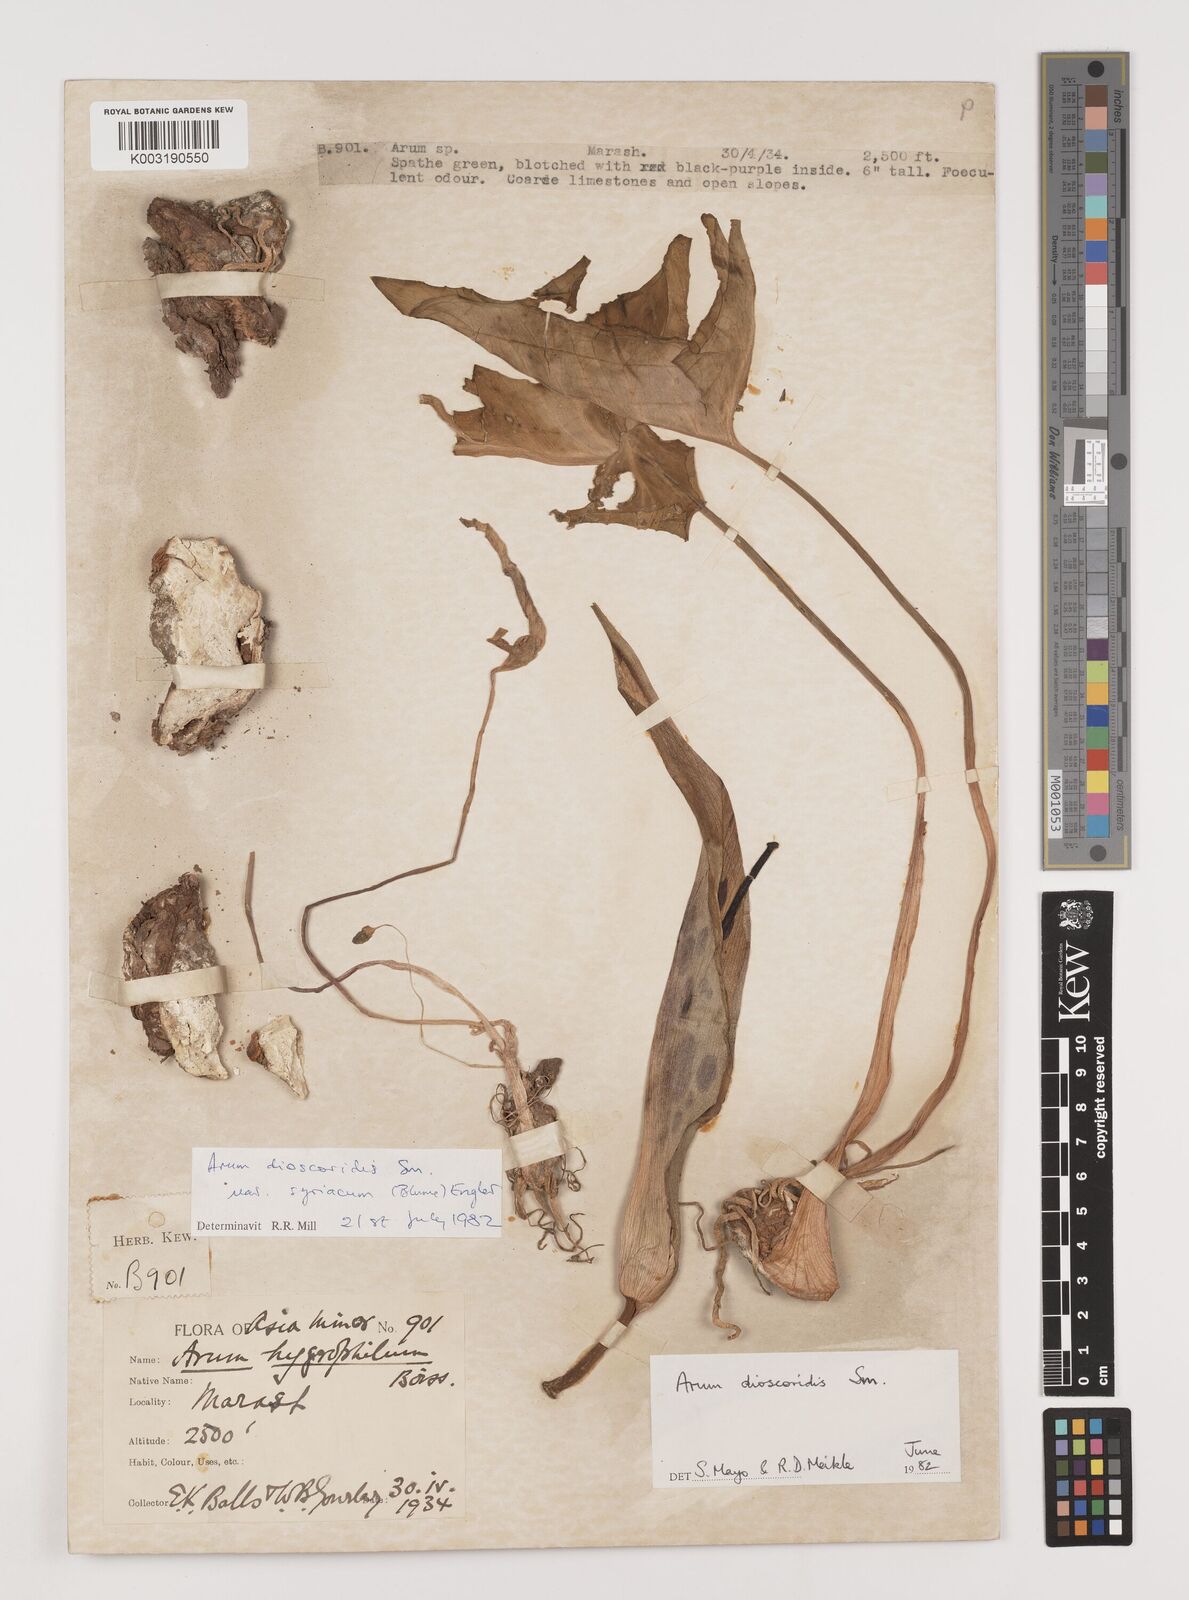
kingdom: Plantae
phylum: Tracheophyta
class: Liliopsida
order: Alismatales
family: Araceae
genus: Arum
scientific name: Arum dioscoridis
